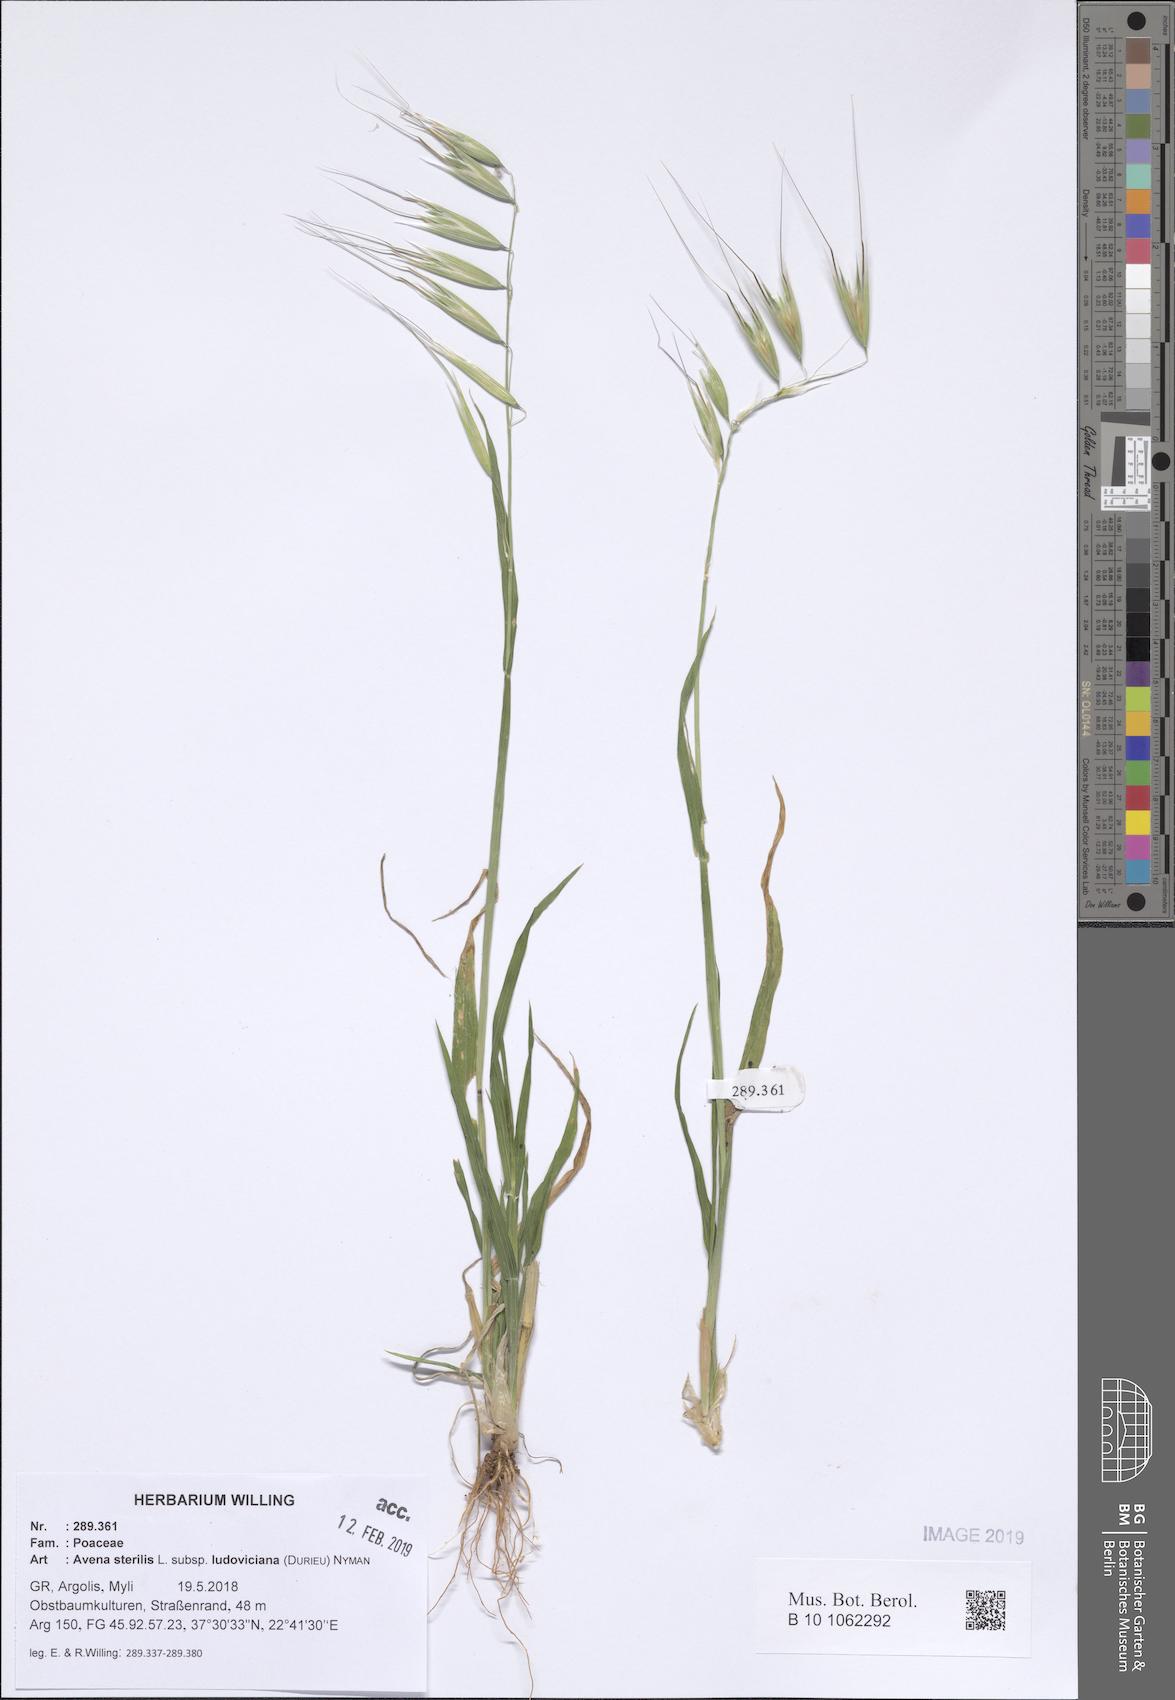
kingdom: Plantae
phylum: Tracheophyta
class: Liliopsida
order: Poales
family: Poaceae
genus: Avena
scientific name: Avena sterilis
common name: Animated oat
